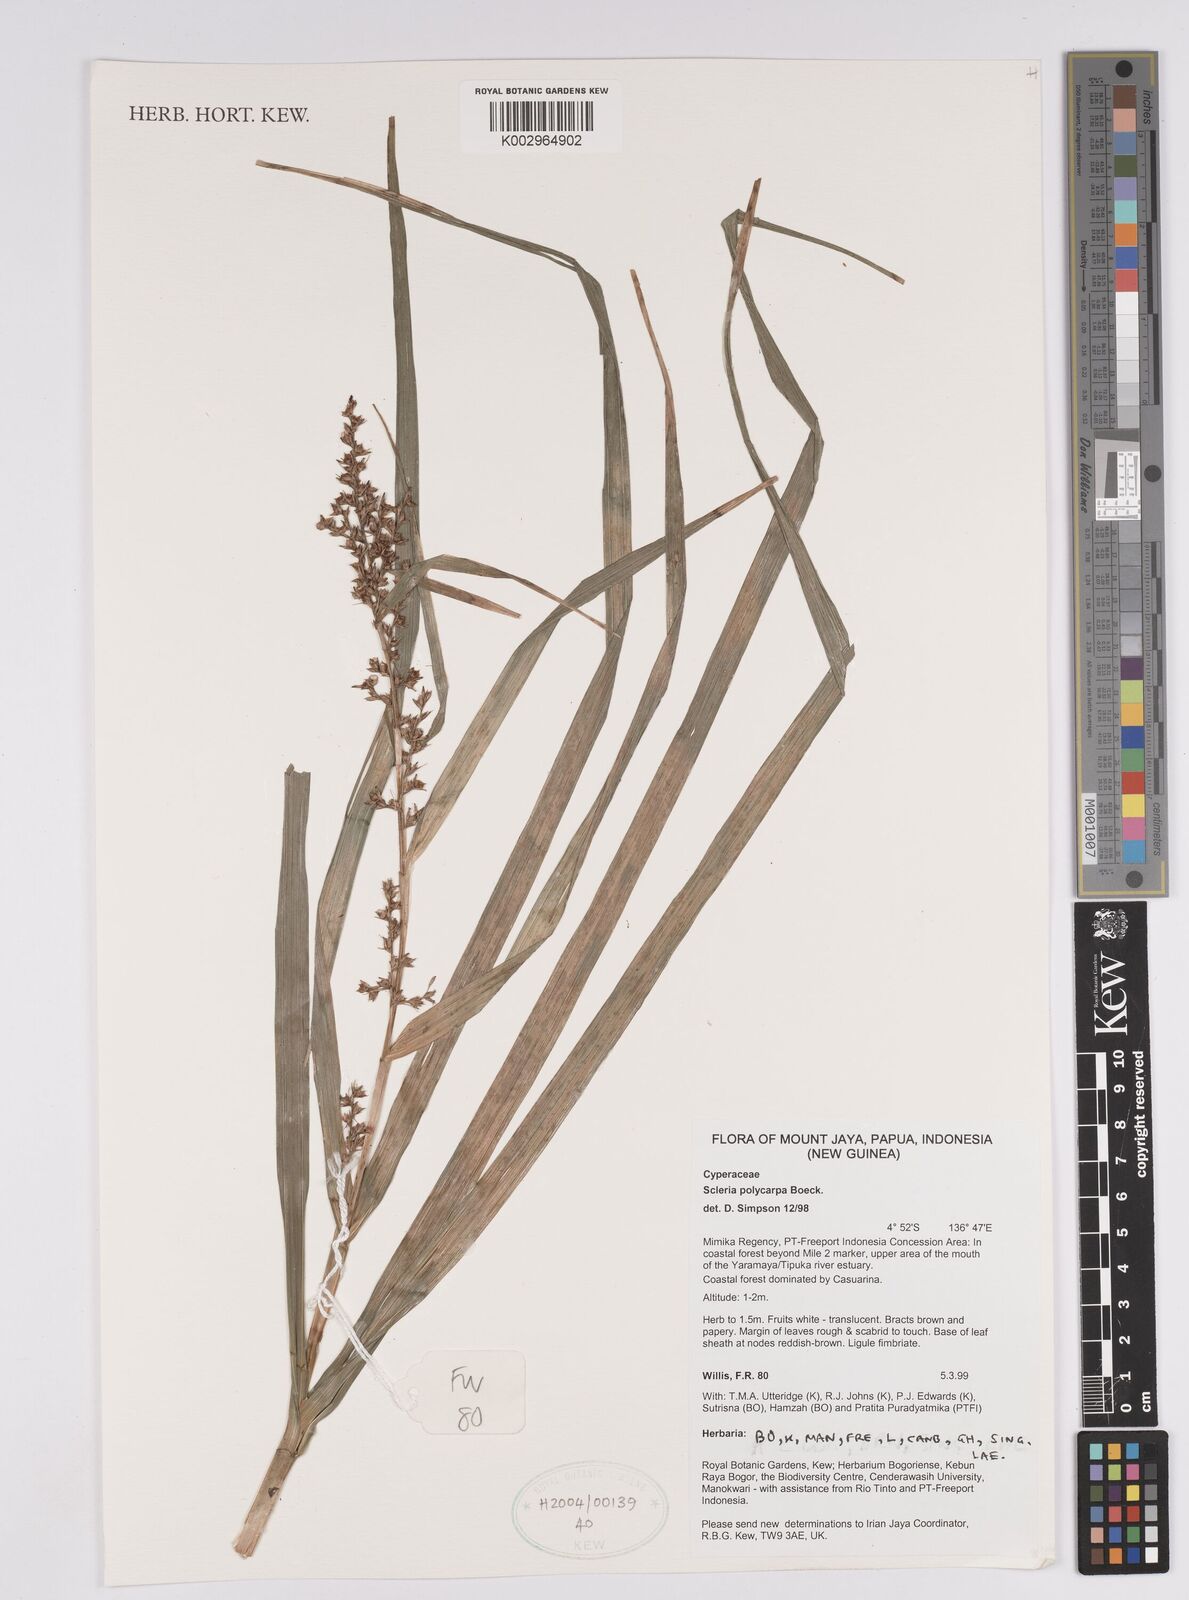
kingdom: Plantae
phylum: Tracheophyta
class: Liliopsida
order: Poales
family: Cyperaceae
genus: Scleria
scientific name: Scleria polycarpa
